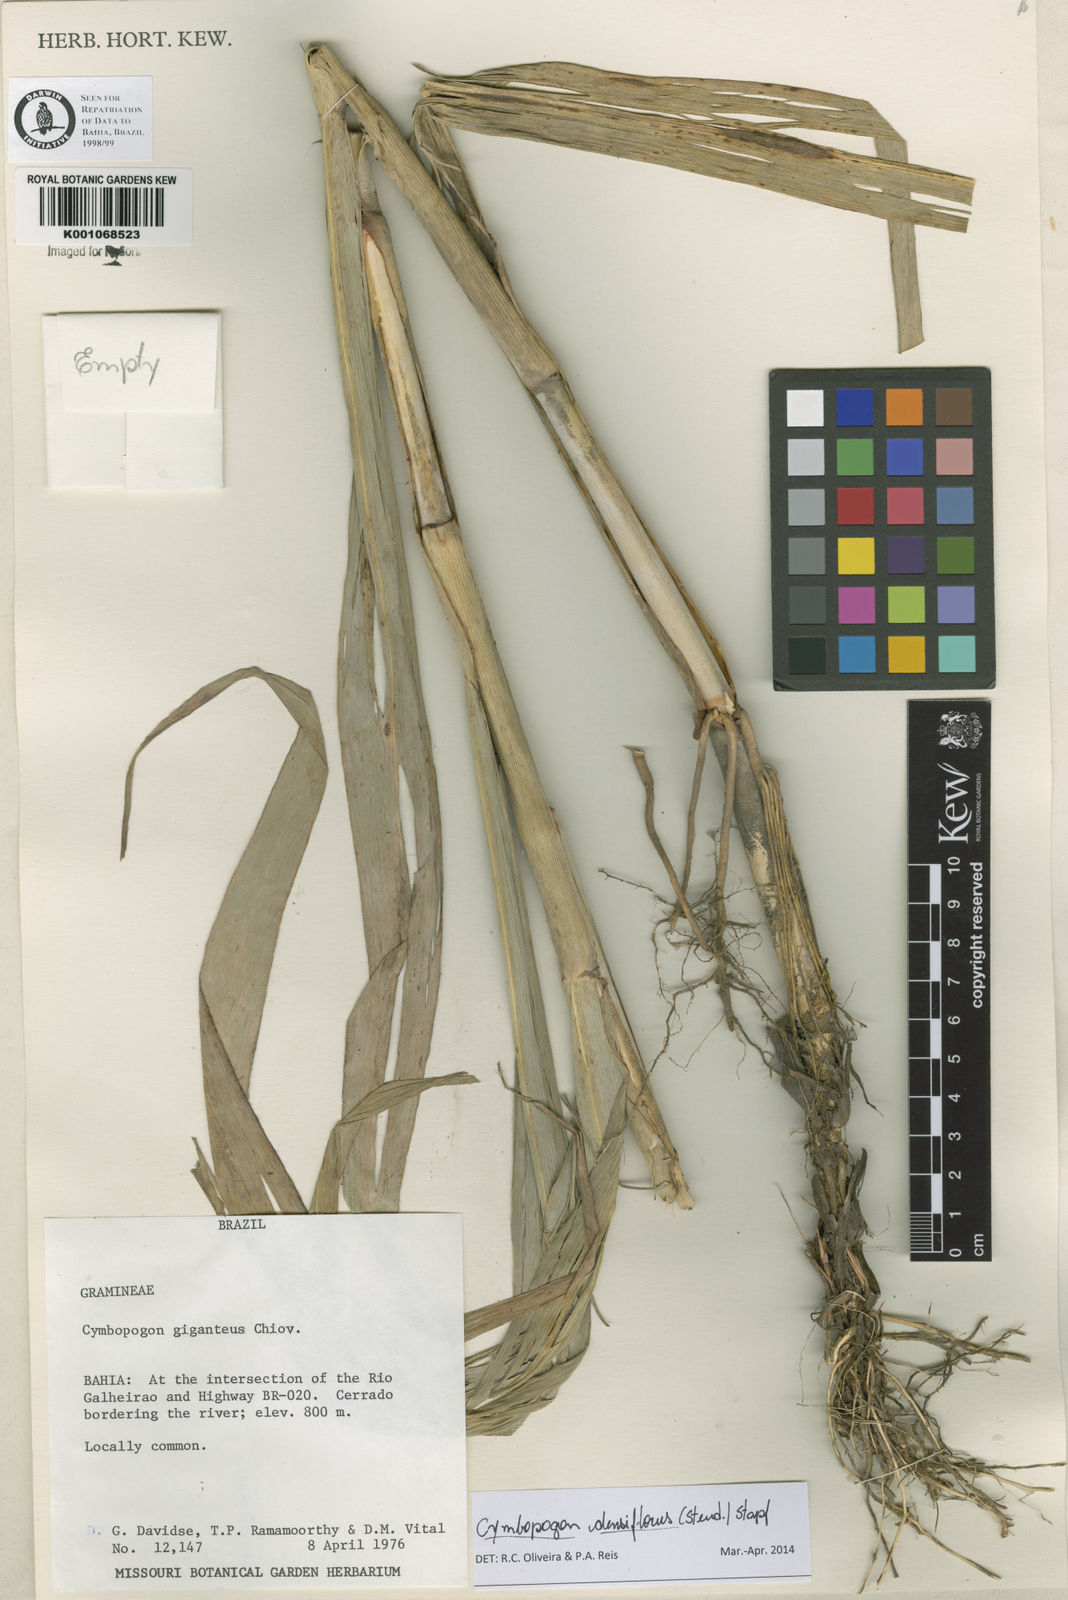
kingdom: Plantae
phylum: Tracheophyta
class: Liliopsida
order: Poales
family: Poaceae
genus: Cymbopogon
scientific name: Cymbopogon densiflorus
